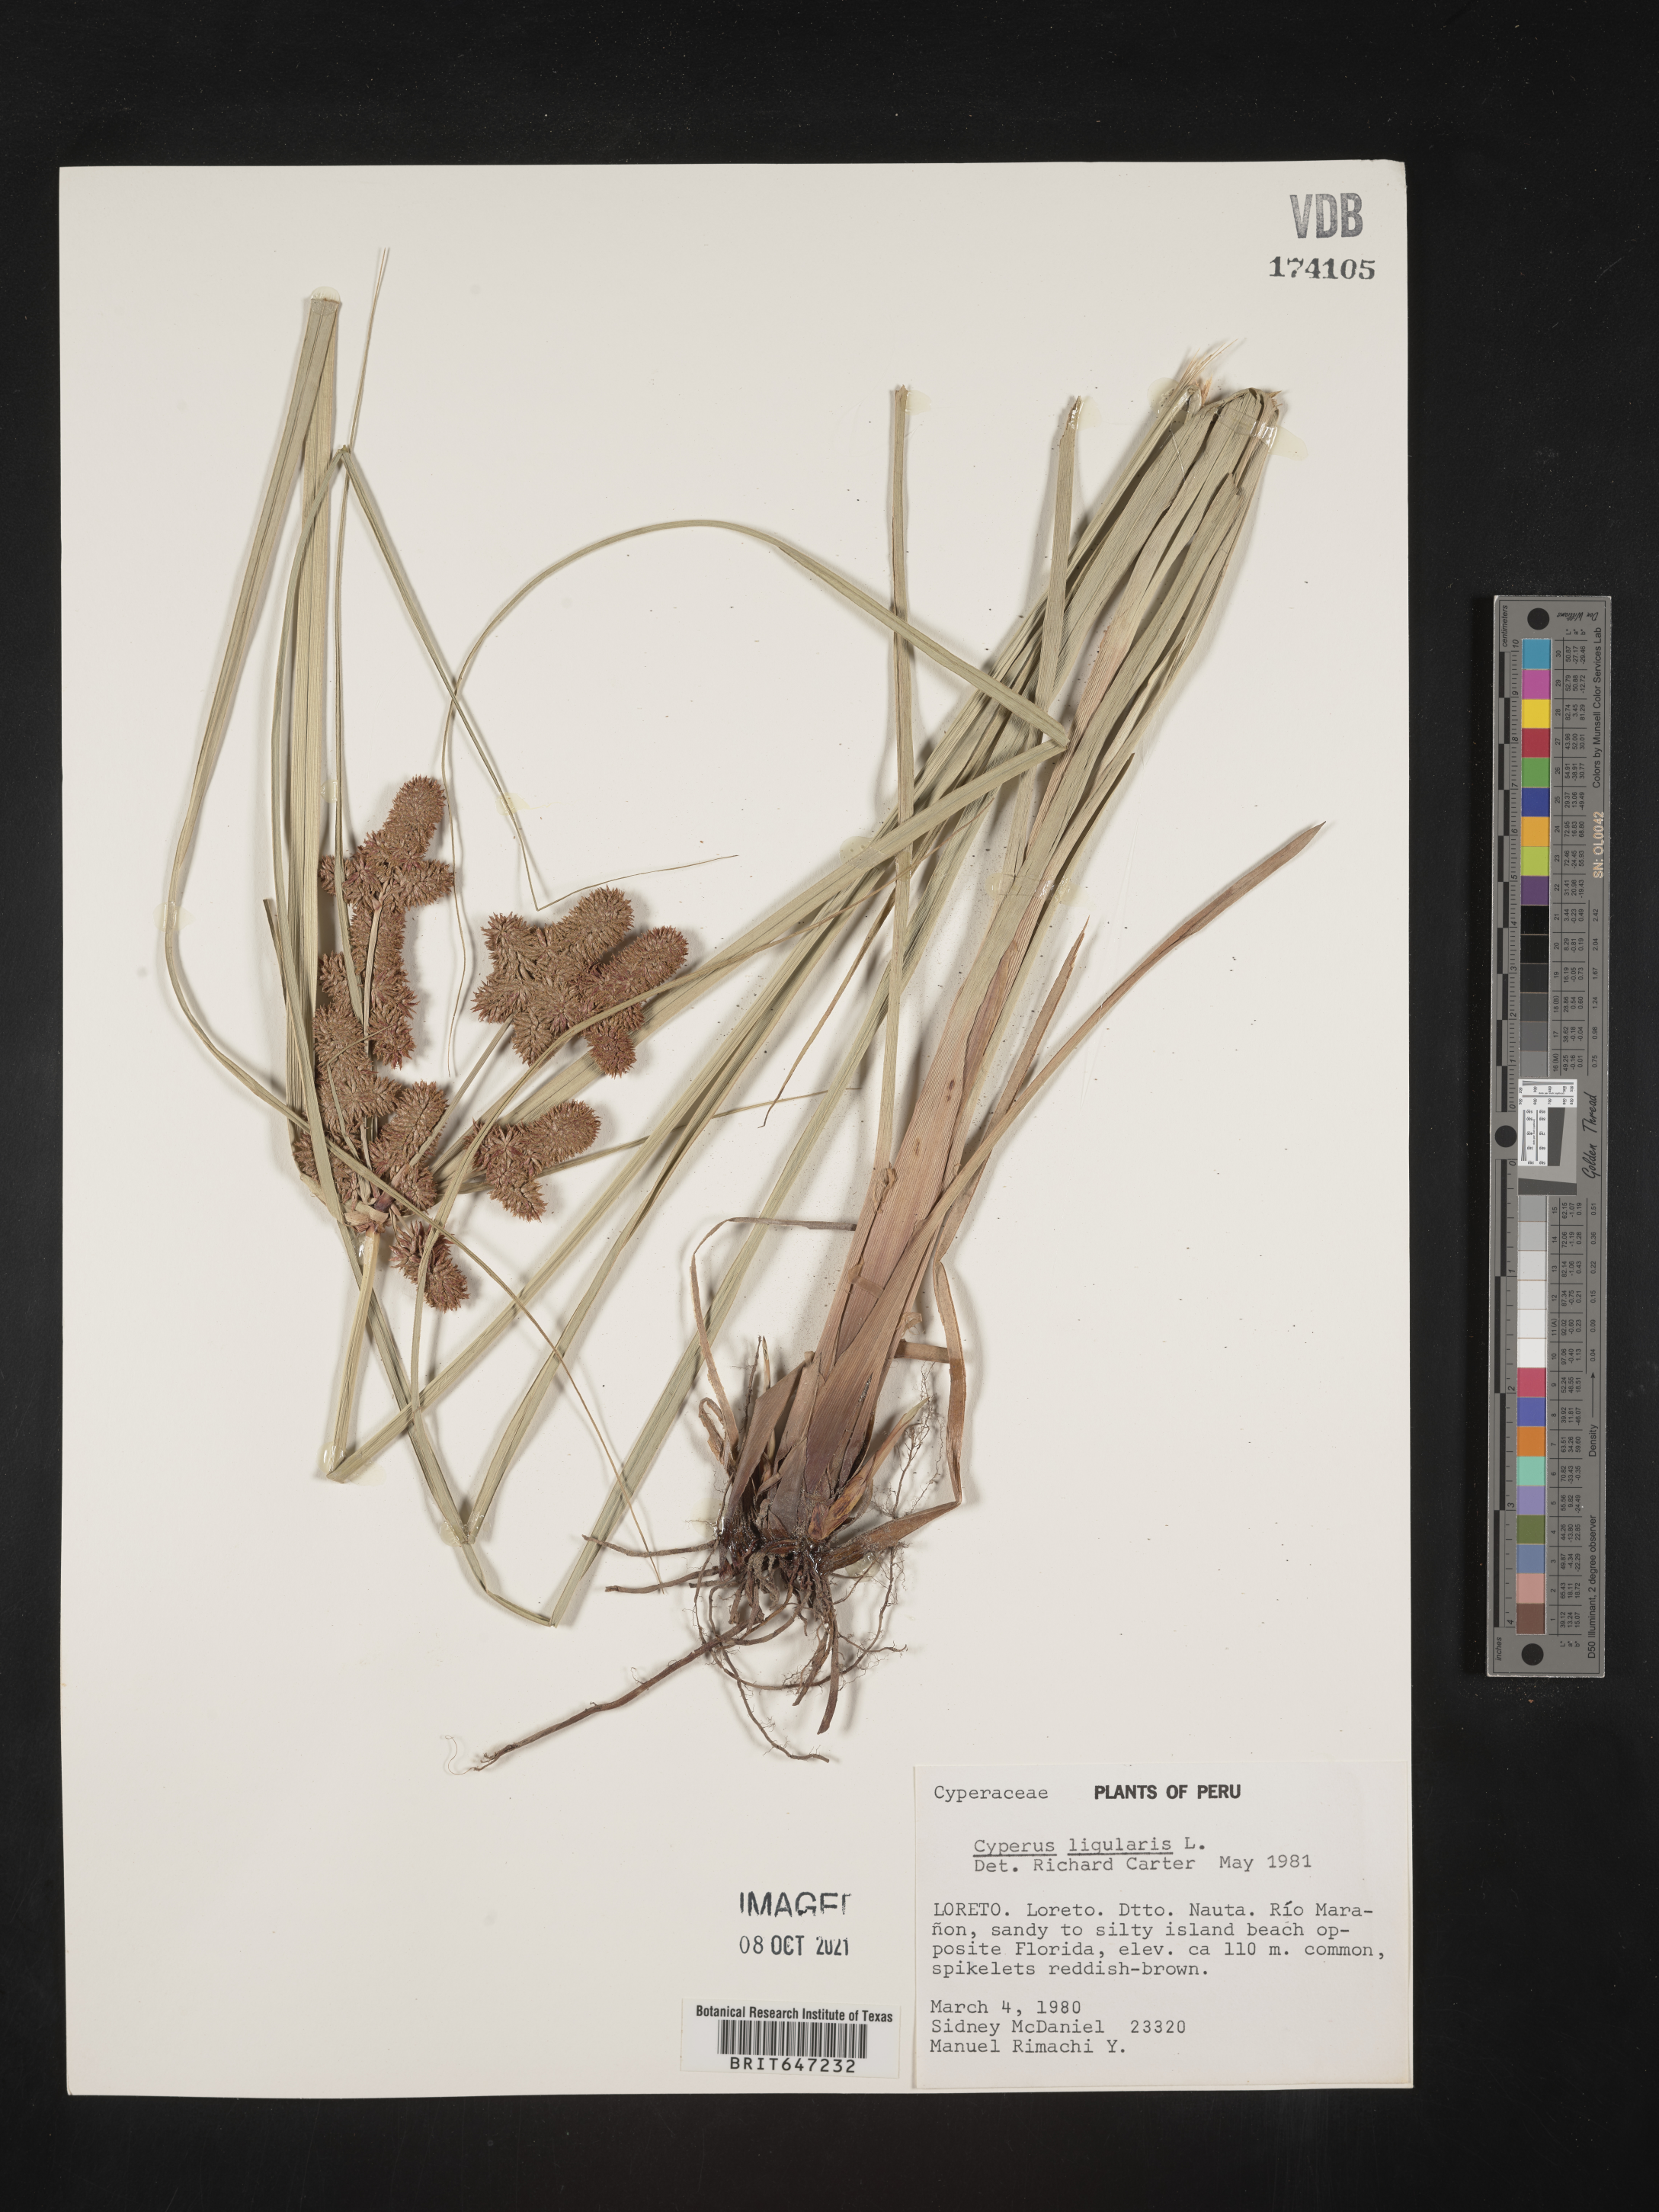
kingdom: Plantae
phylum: Tracheophyta
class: Liliopsida
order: Poales
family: Cyperaceae
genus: Cyperus
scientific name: Cyperus ligularis
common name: Swamp flat sedge
